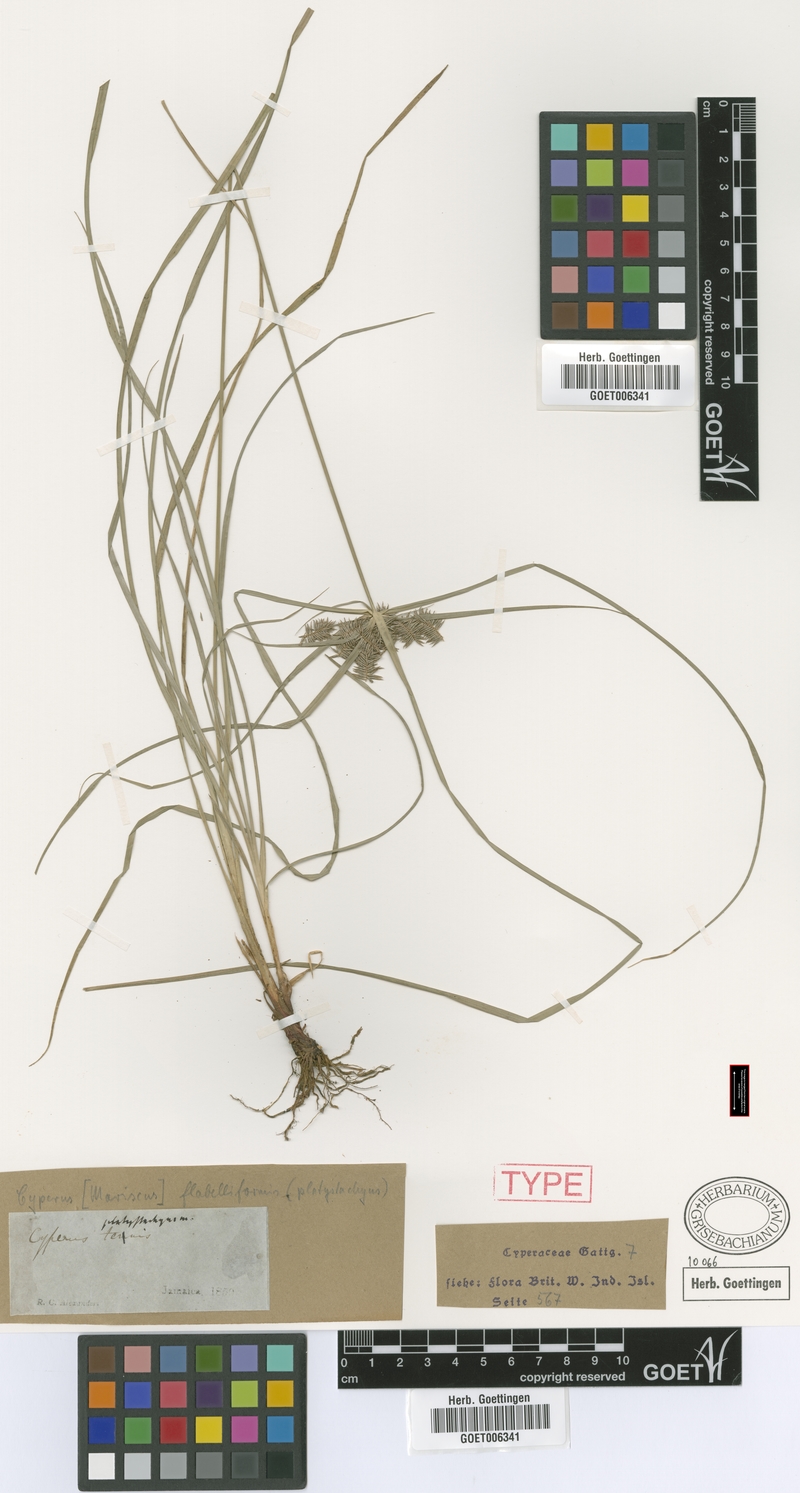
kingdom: Plantae
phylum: Tracheophyta
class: Liliopsida
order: Poales
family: Cyperaceae
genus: Cyperus
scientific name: Cyperus tenuis
